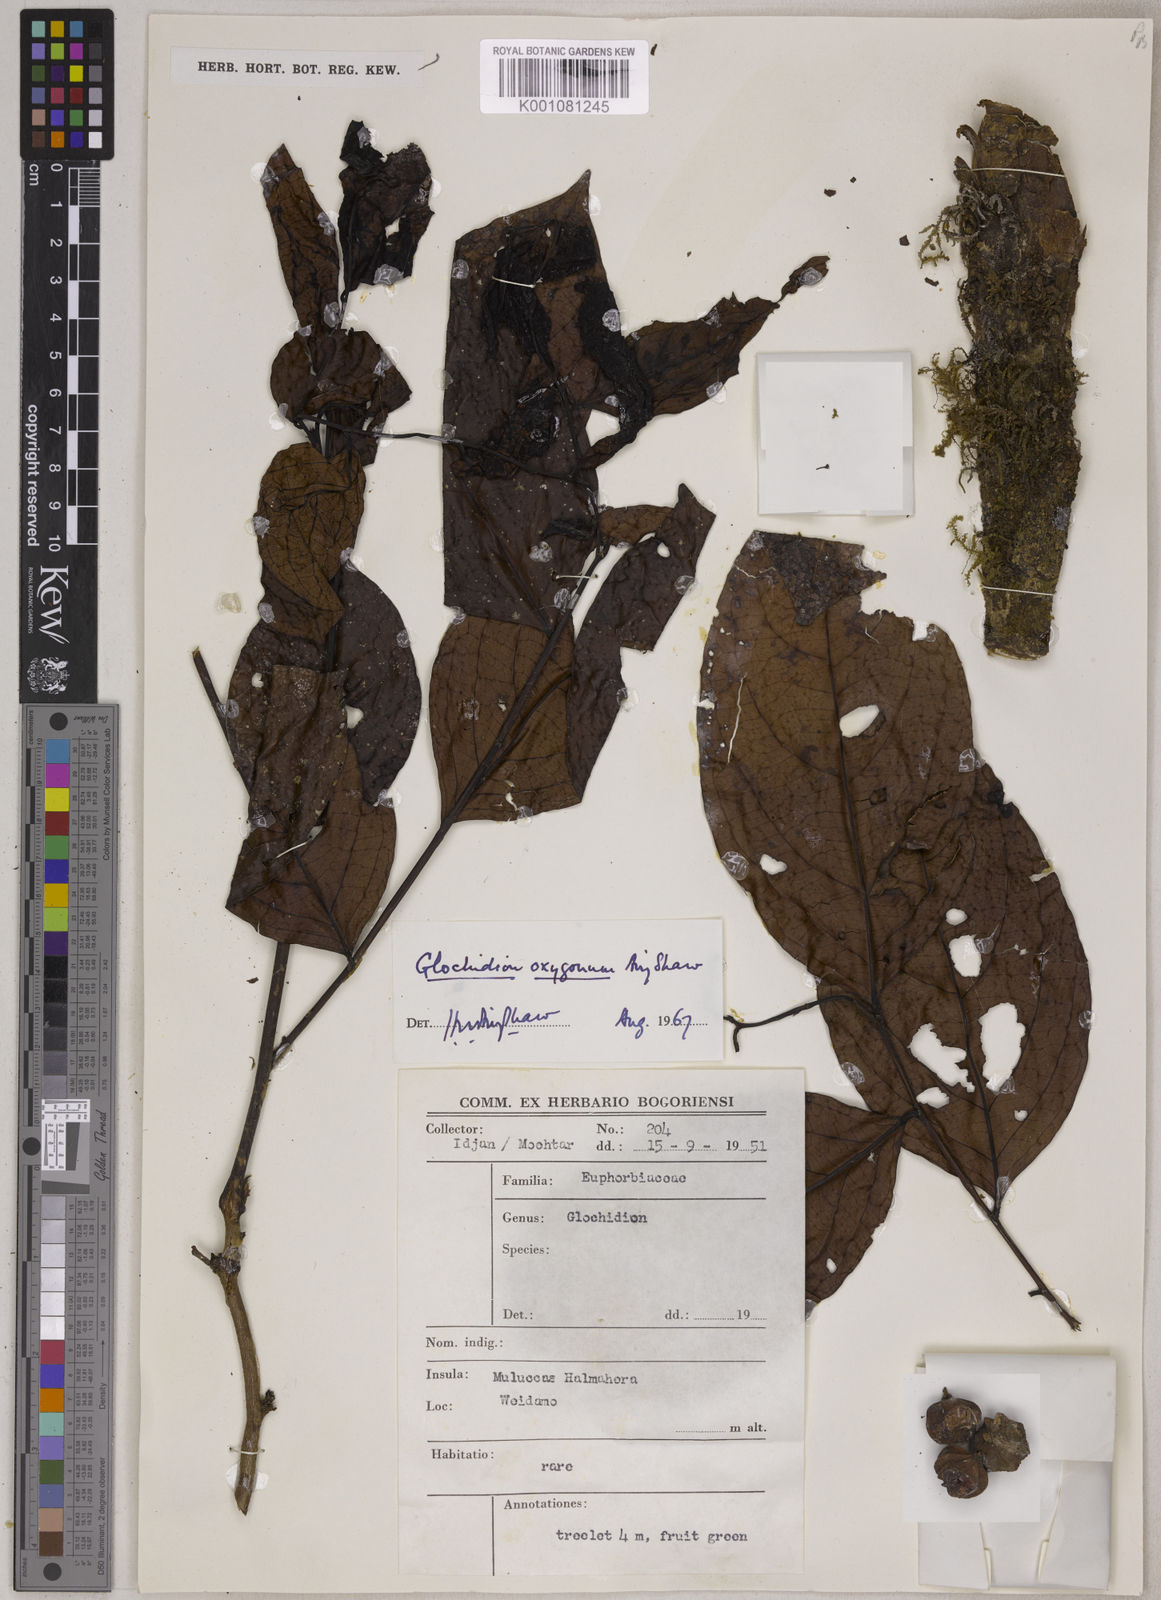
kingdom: Plantae
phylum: Tracheophyta
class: Magnoliopsida
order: Malpighiales
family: Phyllanthaceae
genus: Glochidion
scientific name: Glochidion oxygonum
